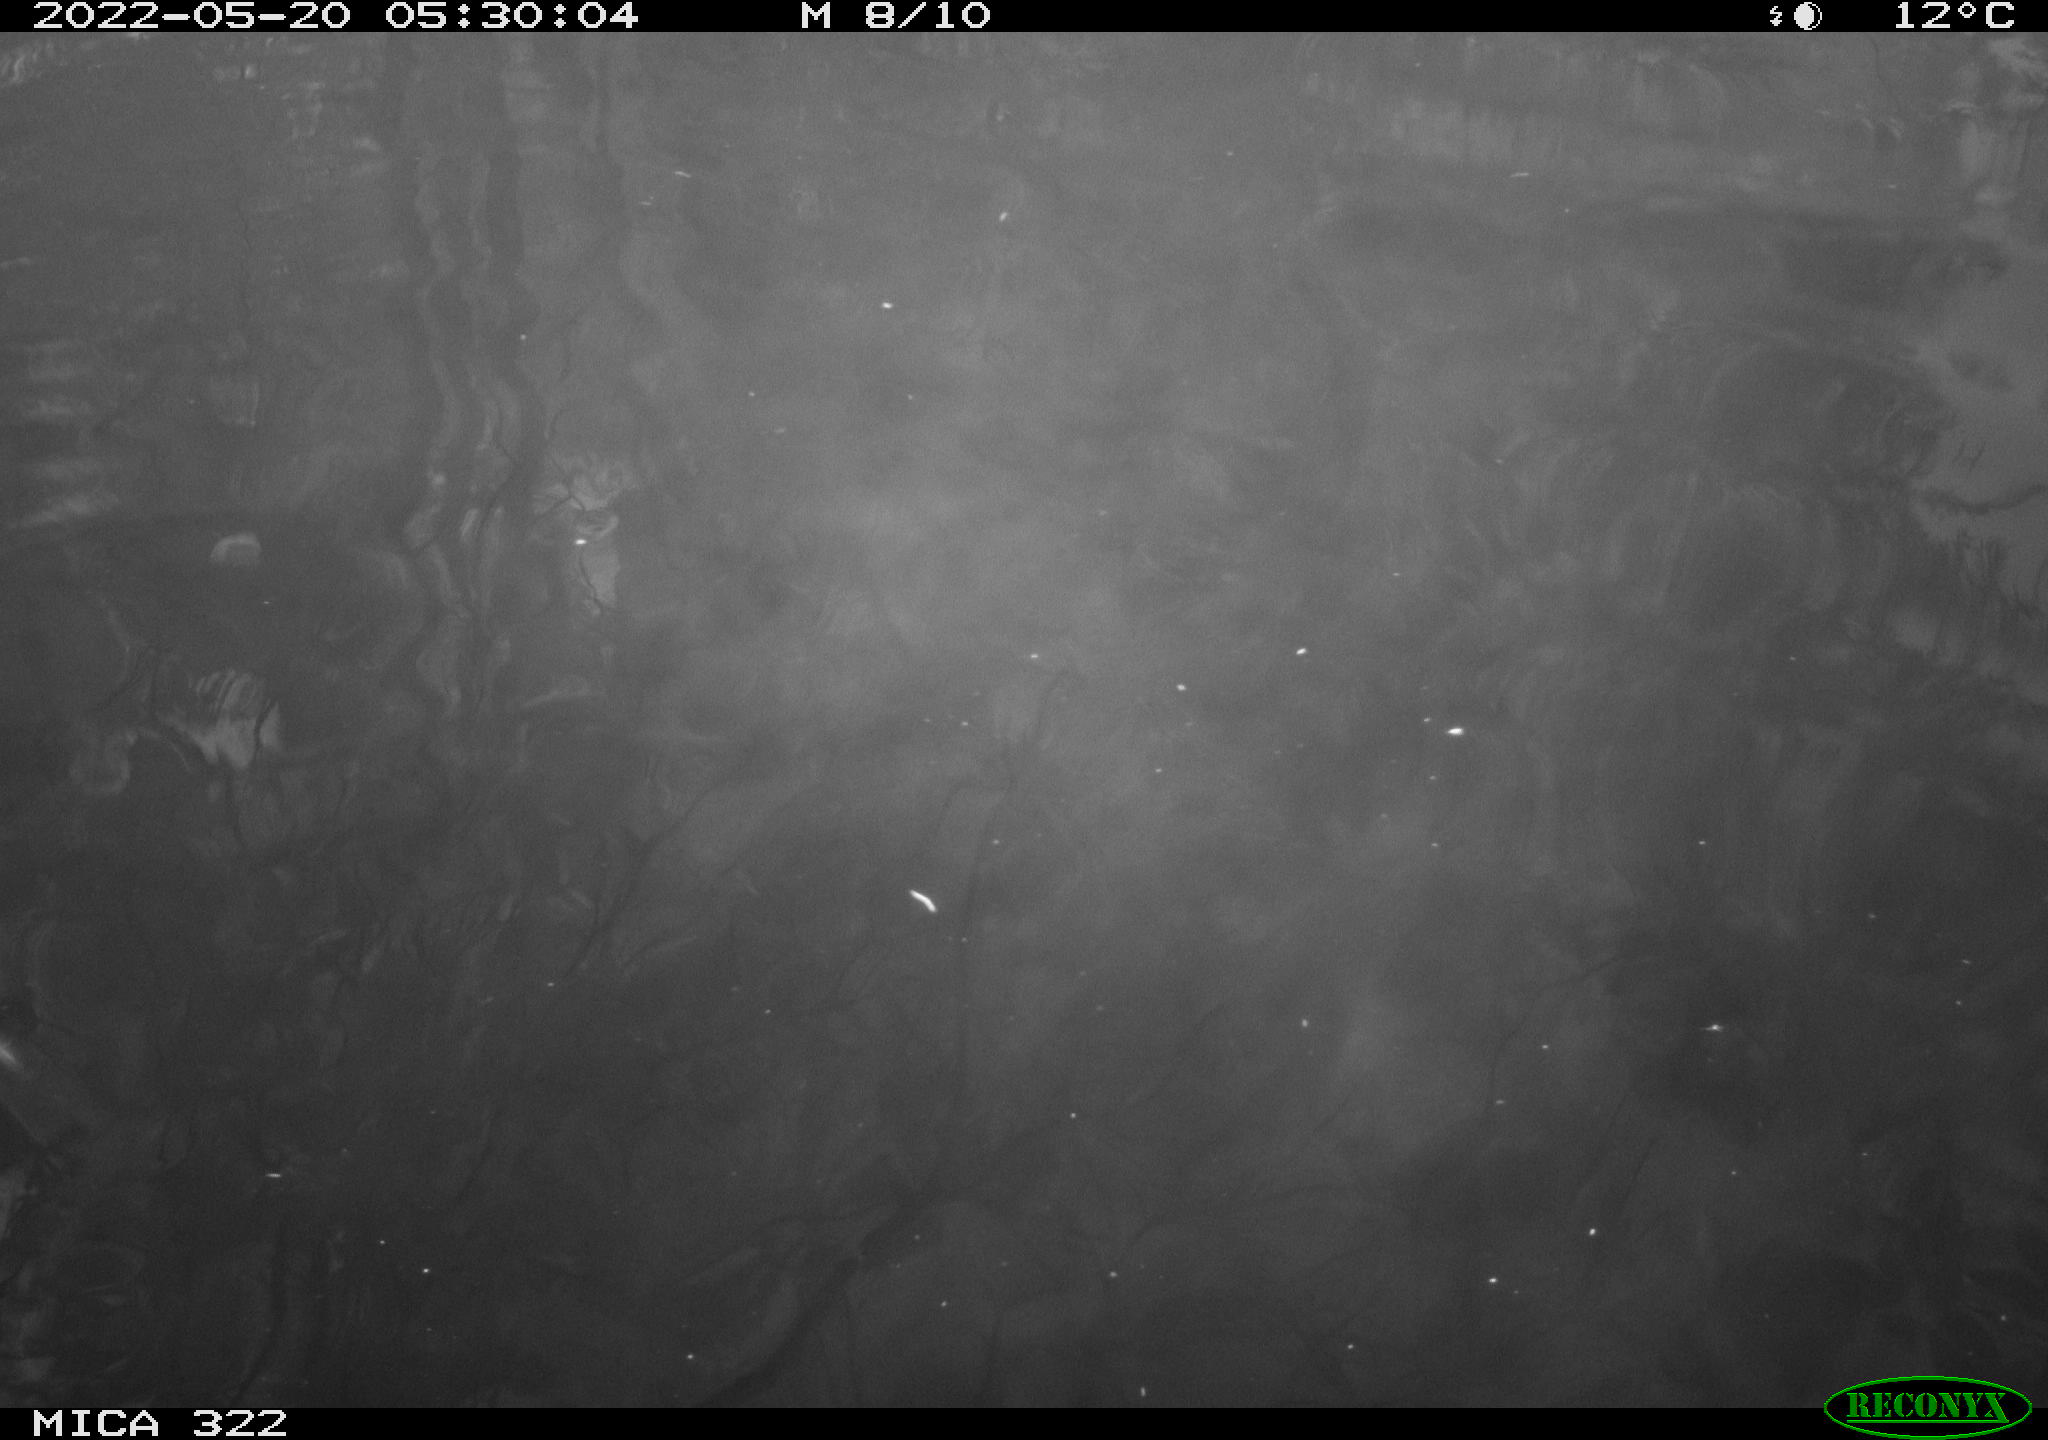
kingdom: Animalia
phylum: Chordata
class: Aves
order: Anseriformes
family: Anatidae
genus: Anas
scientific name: Anas platyrhynchos
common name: Mallard
